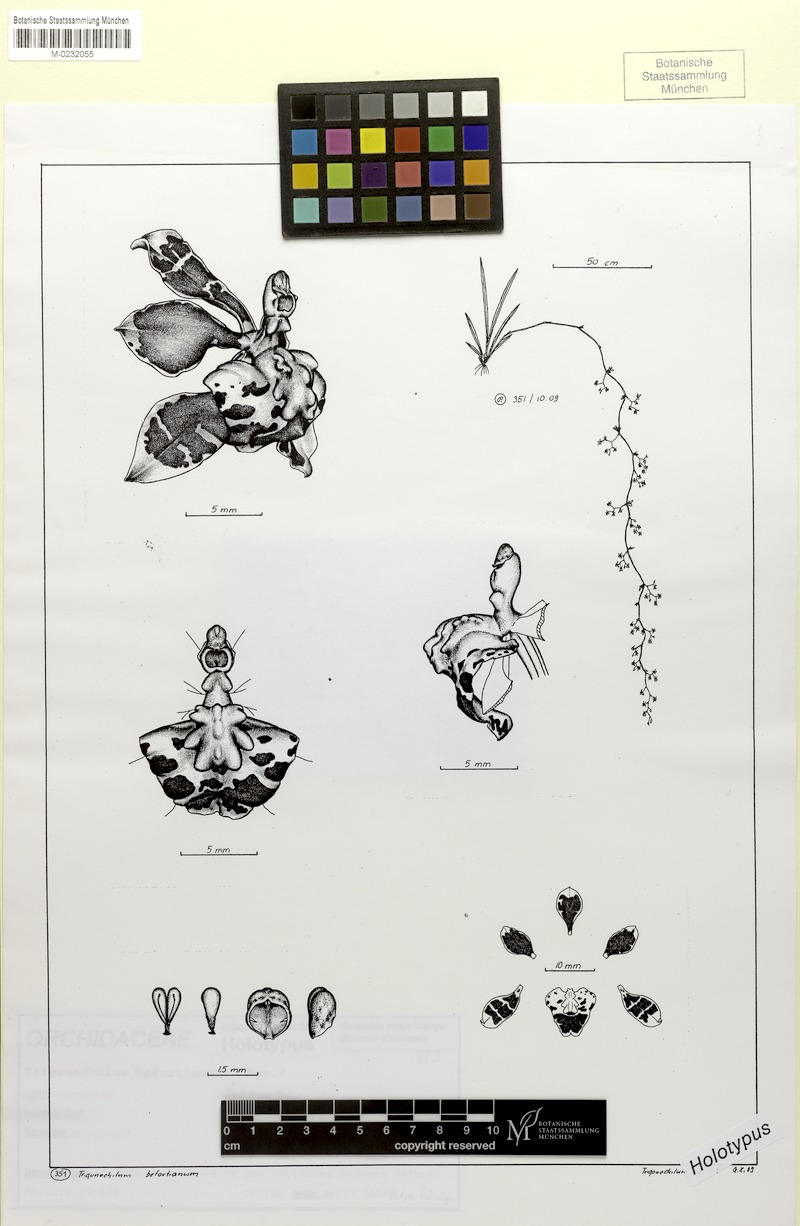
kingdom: Plantae
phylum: Tracheophyta
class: Liliopsida
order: Asparagales
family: Orchidaceae
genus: Cyrtochilum
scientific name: Cyrtochilum befortianum
